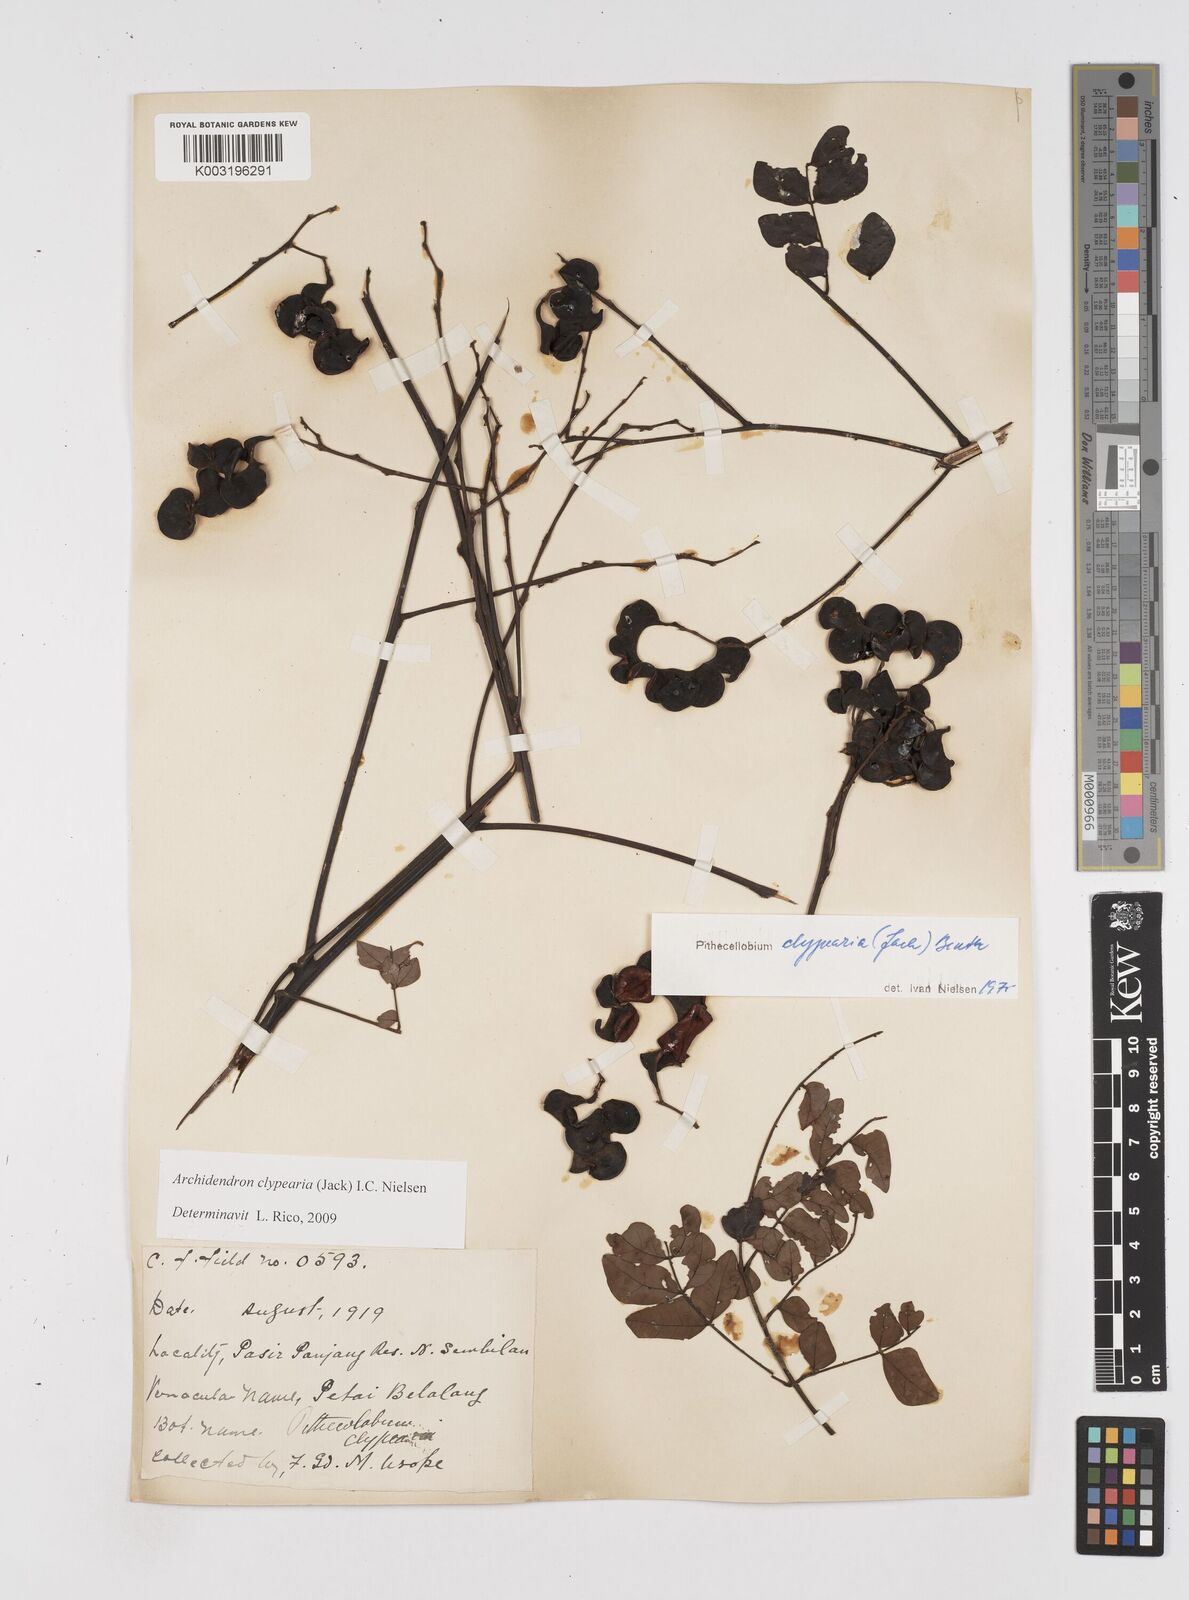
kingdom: Plantae
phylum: Tracheophyta
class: Magnoliopsida
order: Fabales
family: Fabaceae
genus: Archidendron
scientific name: Archidendron clypearia
